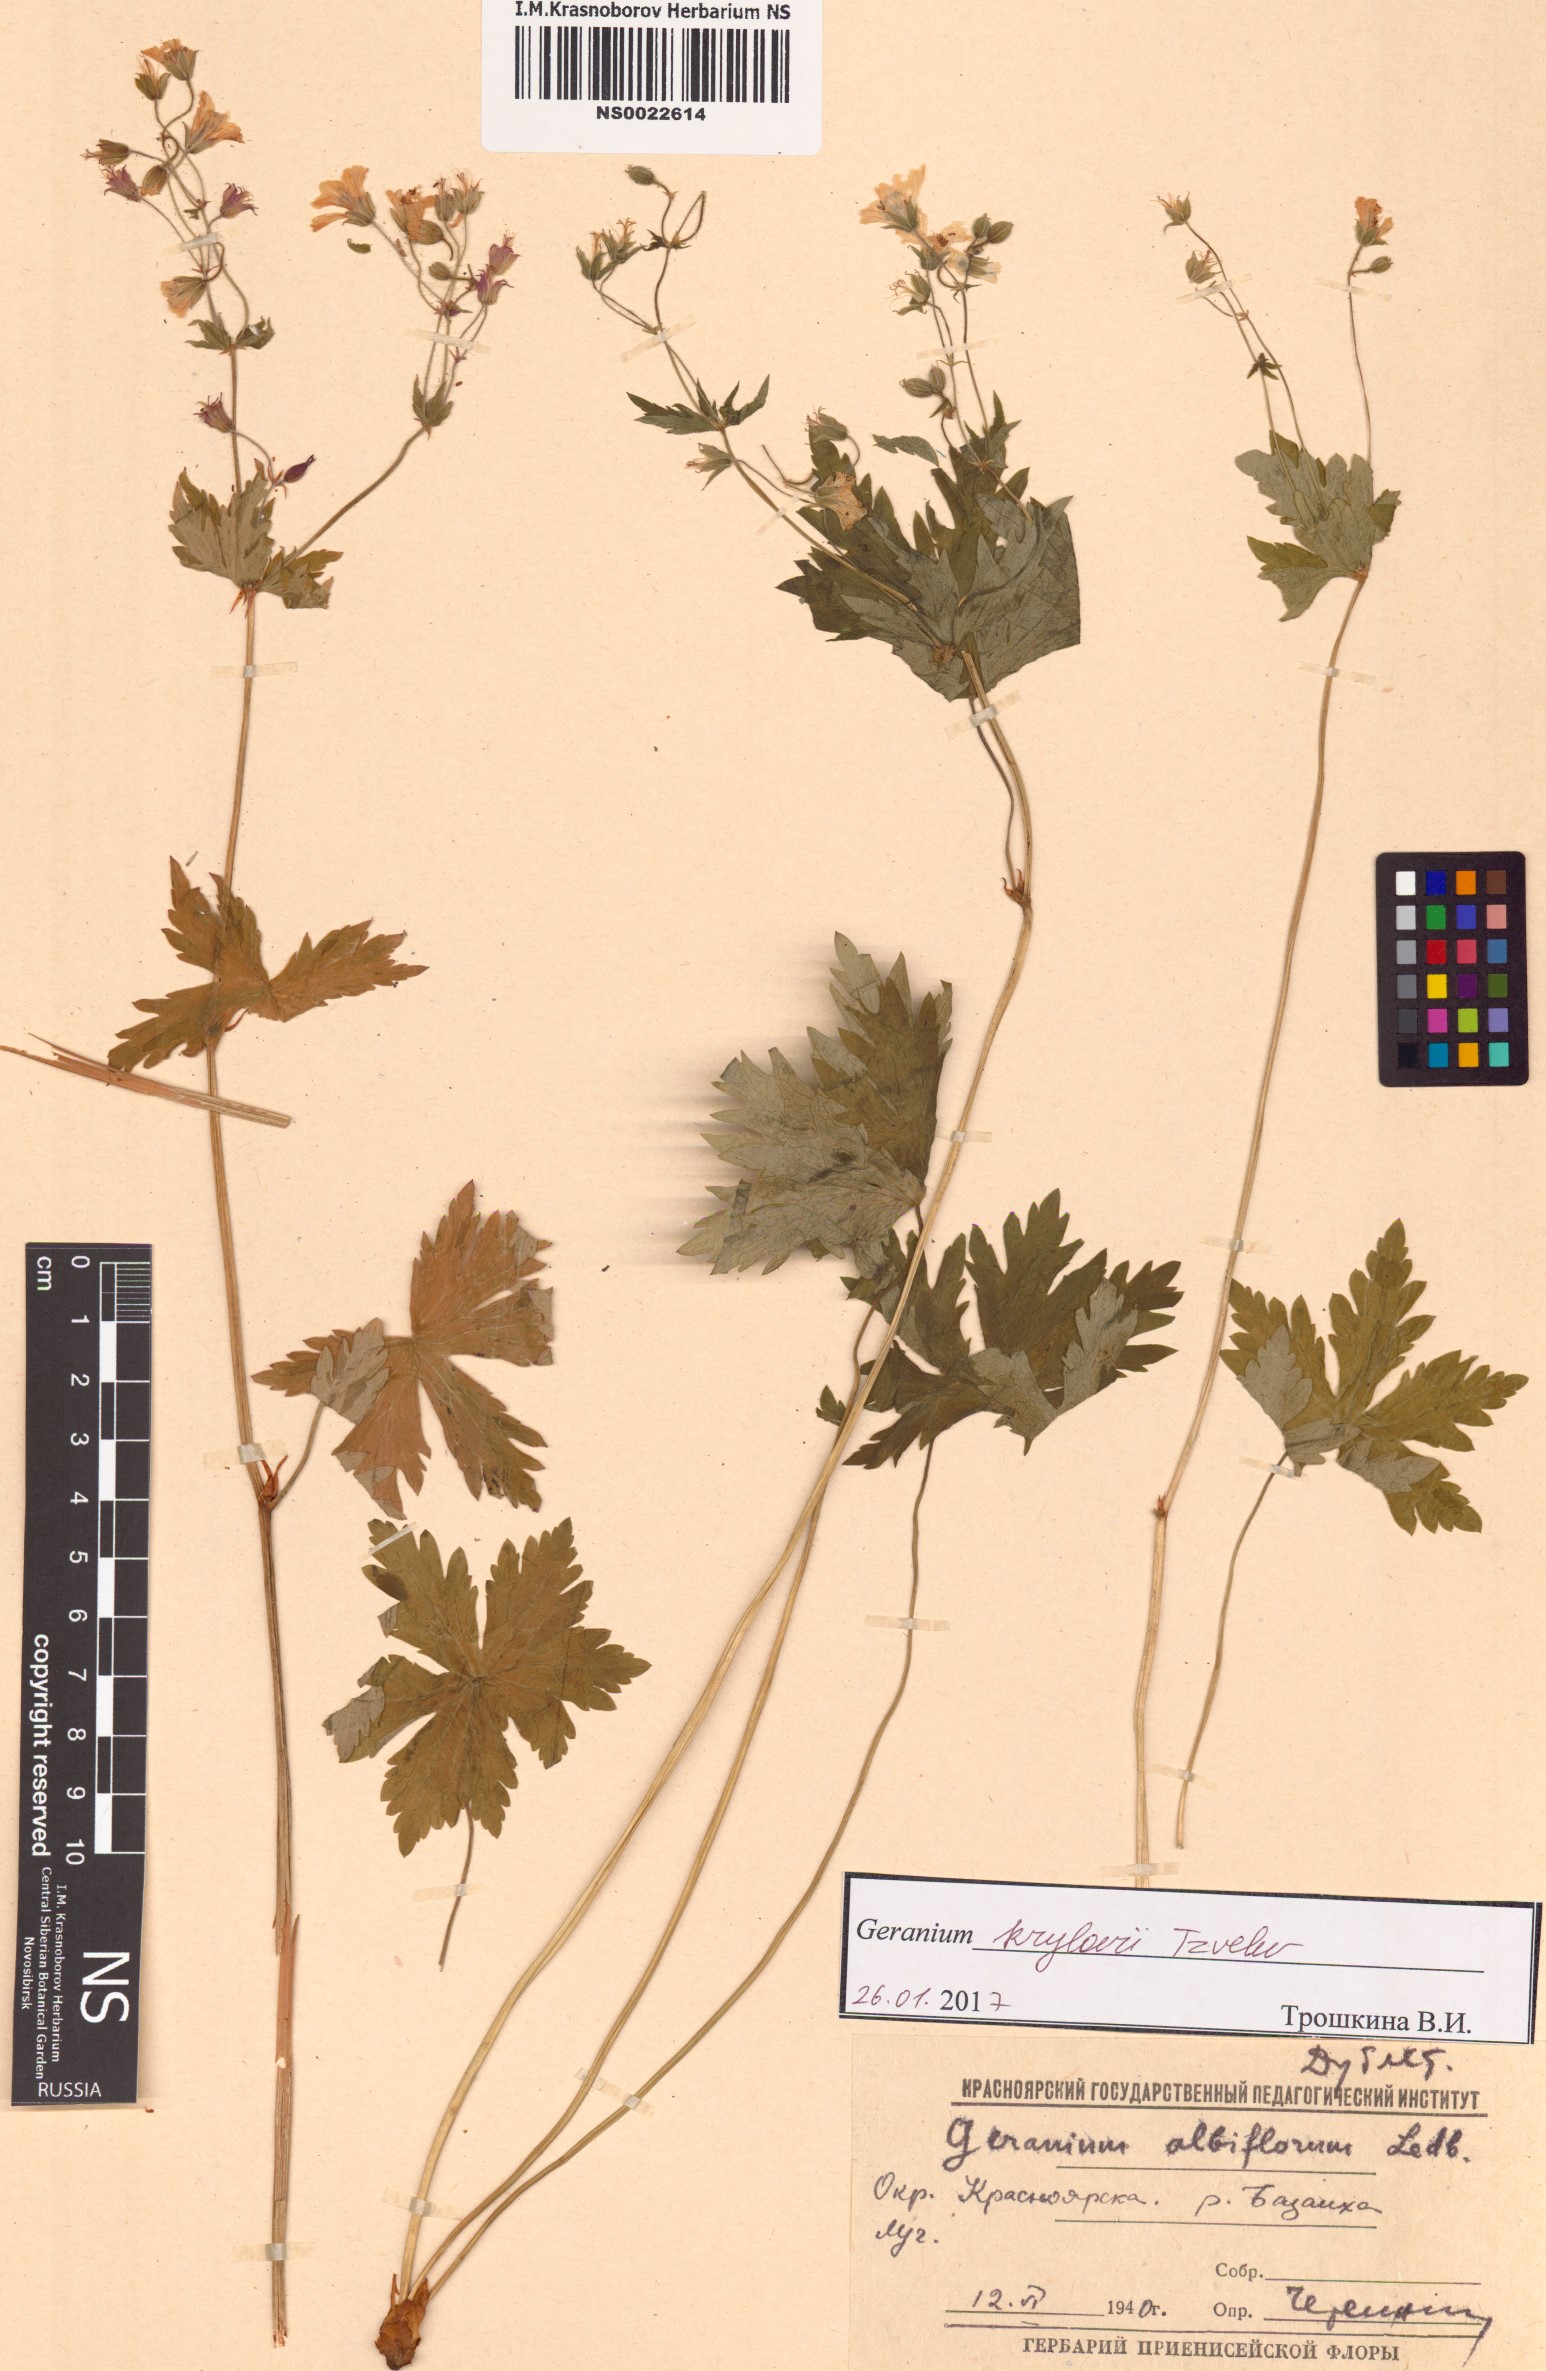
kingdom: Plantae
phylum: Tracheophyta
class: Magnoliopsida
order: Geraniales
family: Geraniaceae
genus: Geranium
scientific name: Geranium sylvaticum
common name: Wood crane's-bill
